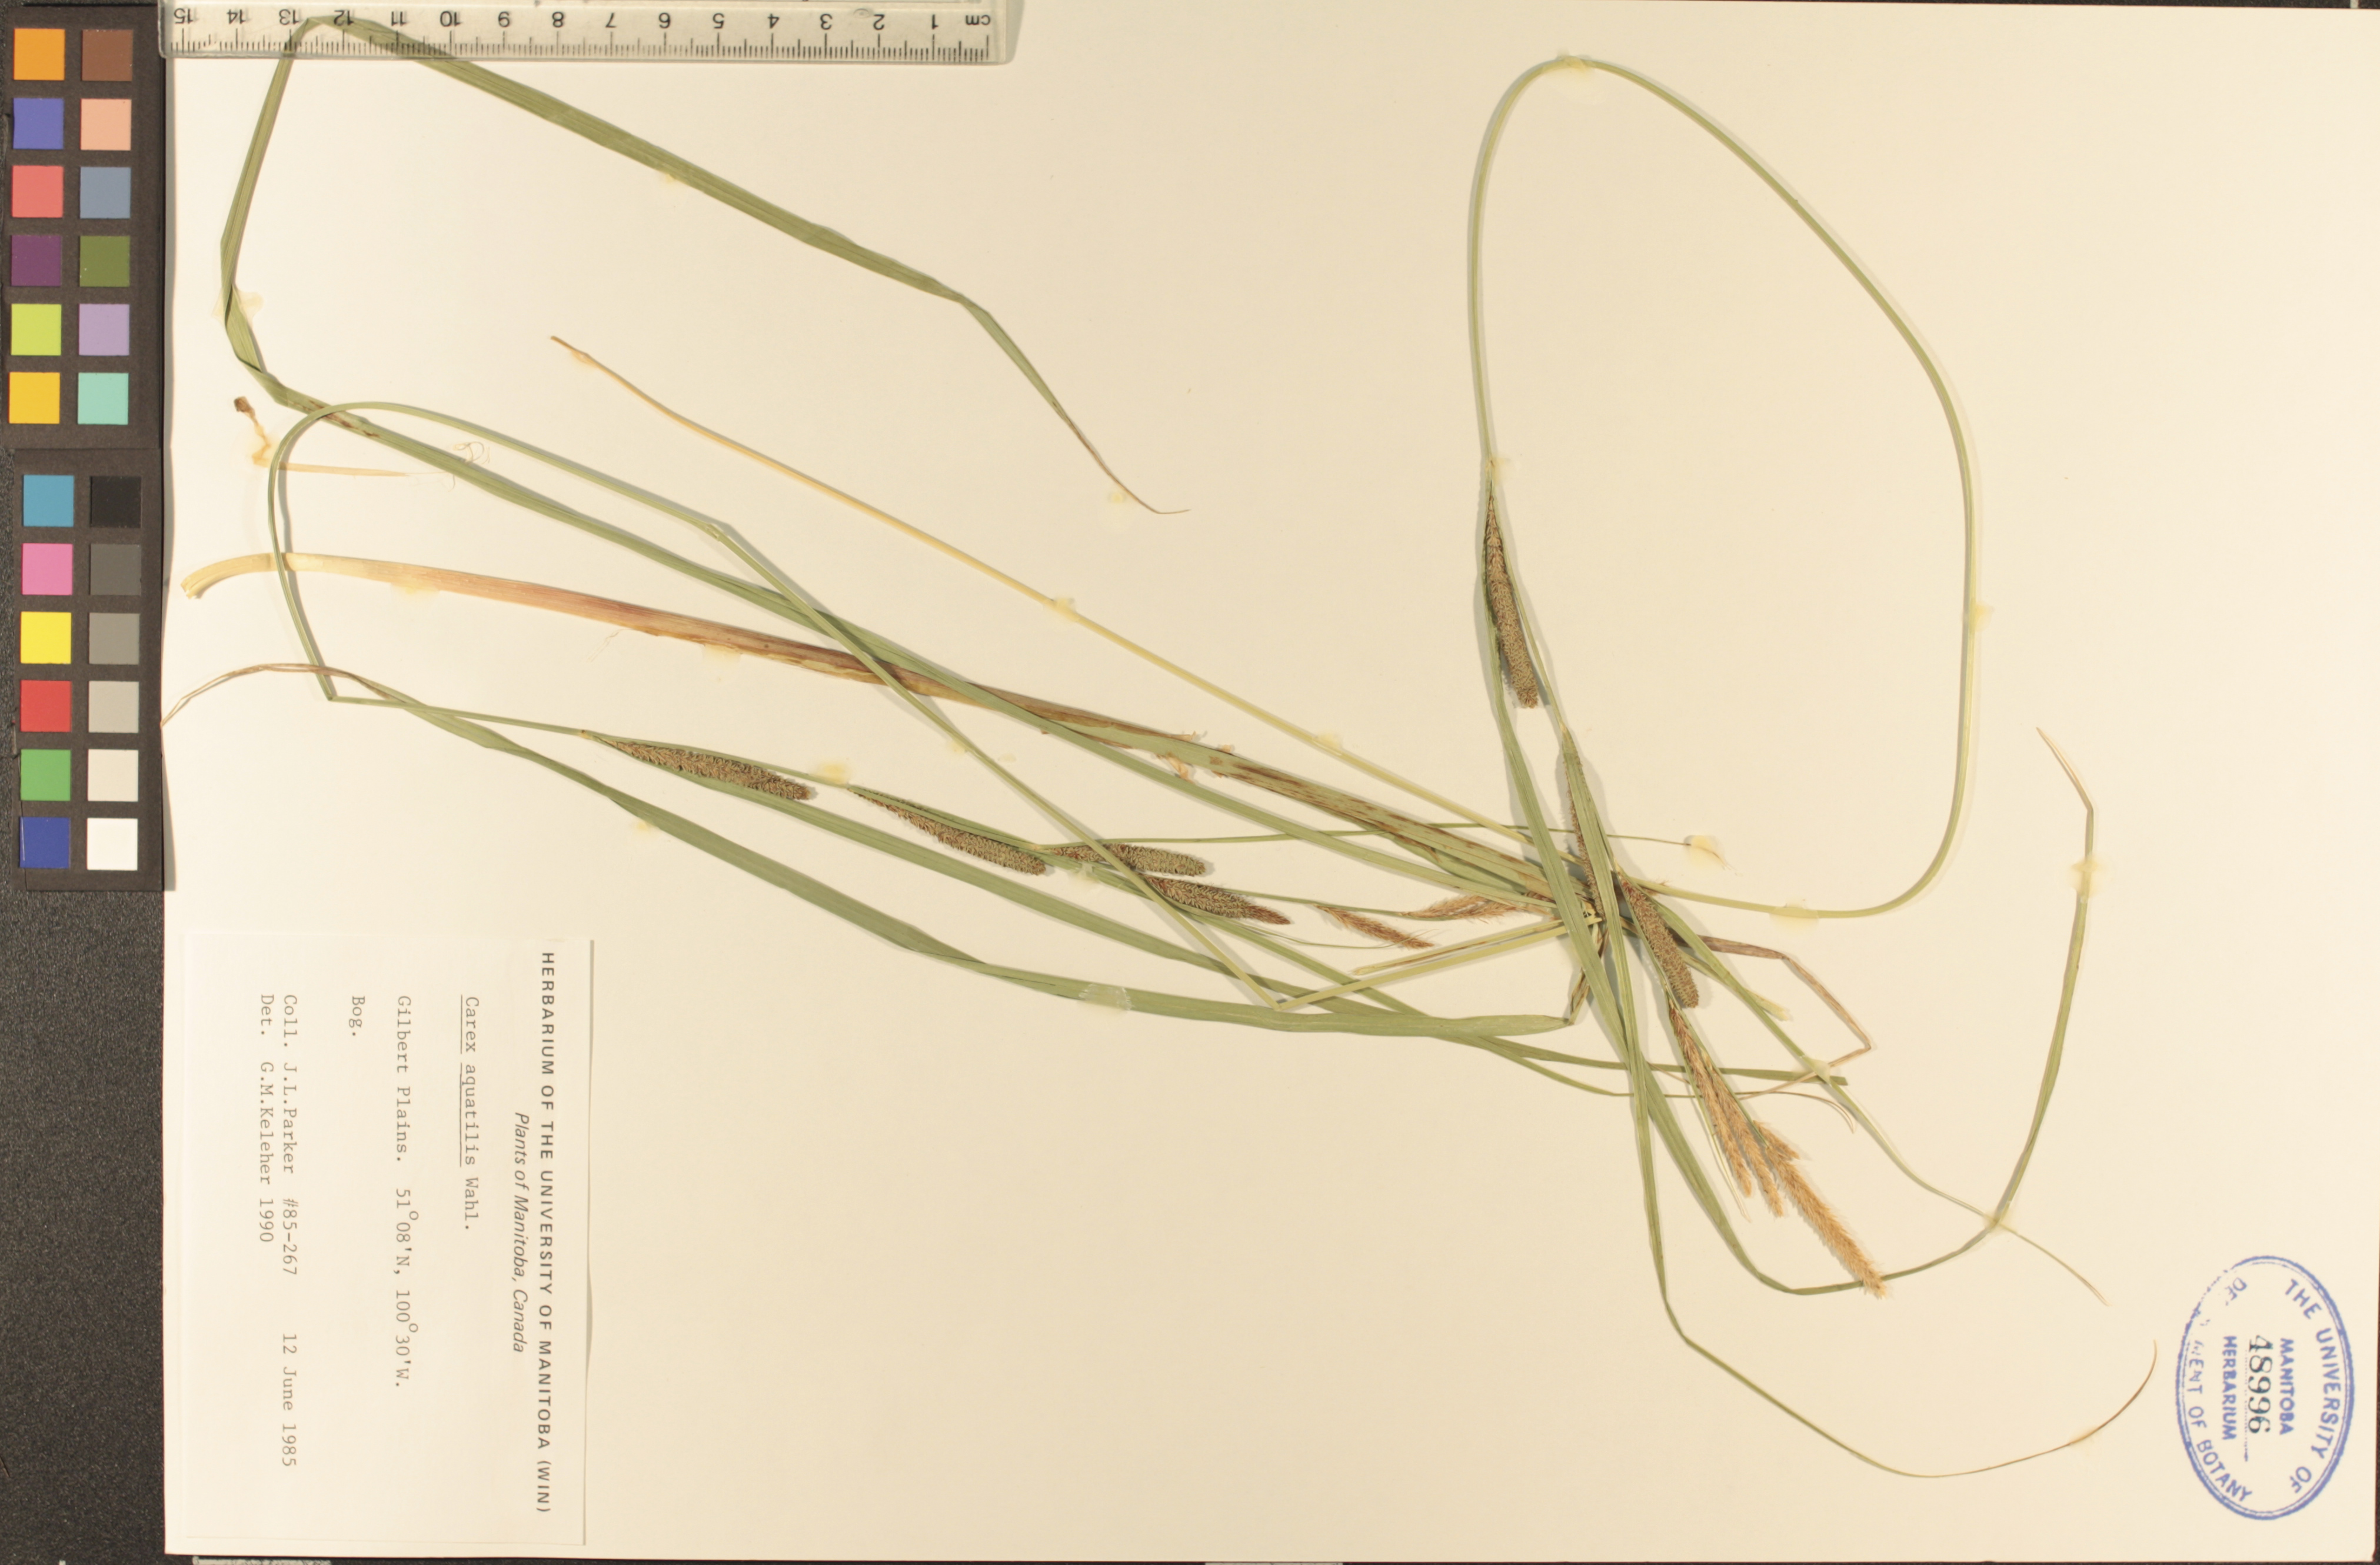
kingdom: Plantae
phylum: Tracheophyta
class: Liliopsida
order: Poales
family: Cyperaceae
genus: Carex
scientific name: Carex aquatilis
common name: Water sedge
